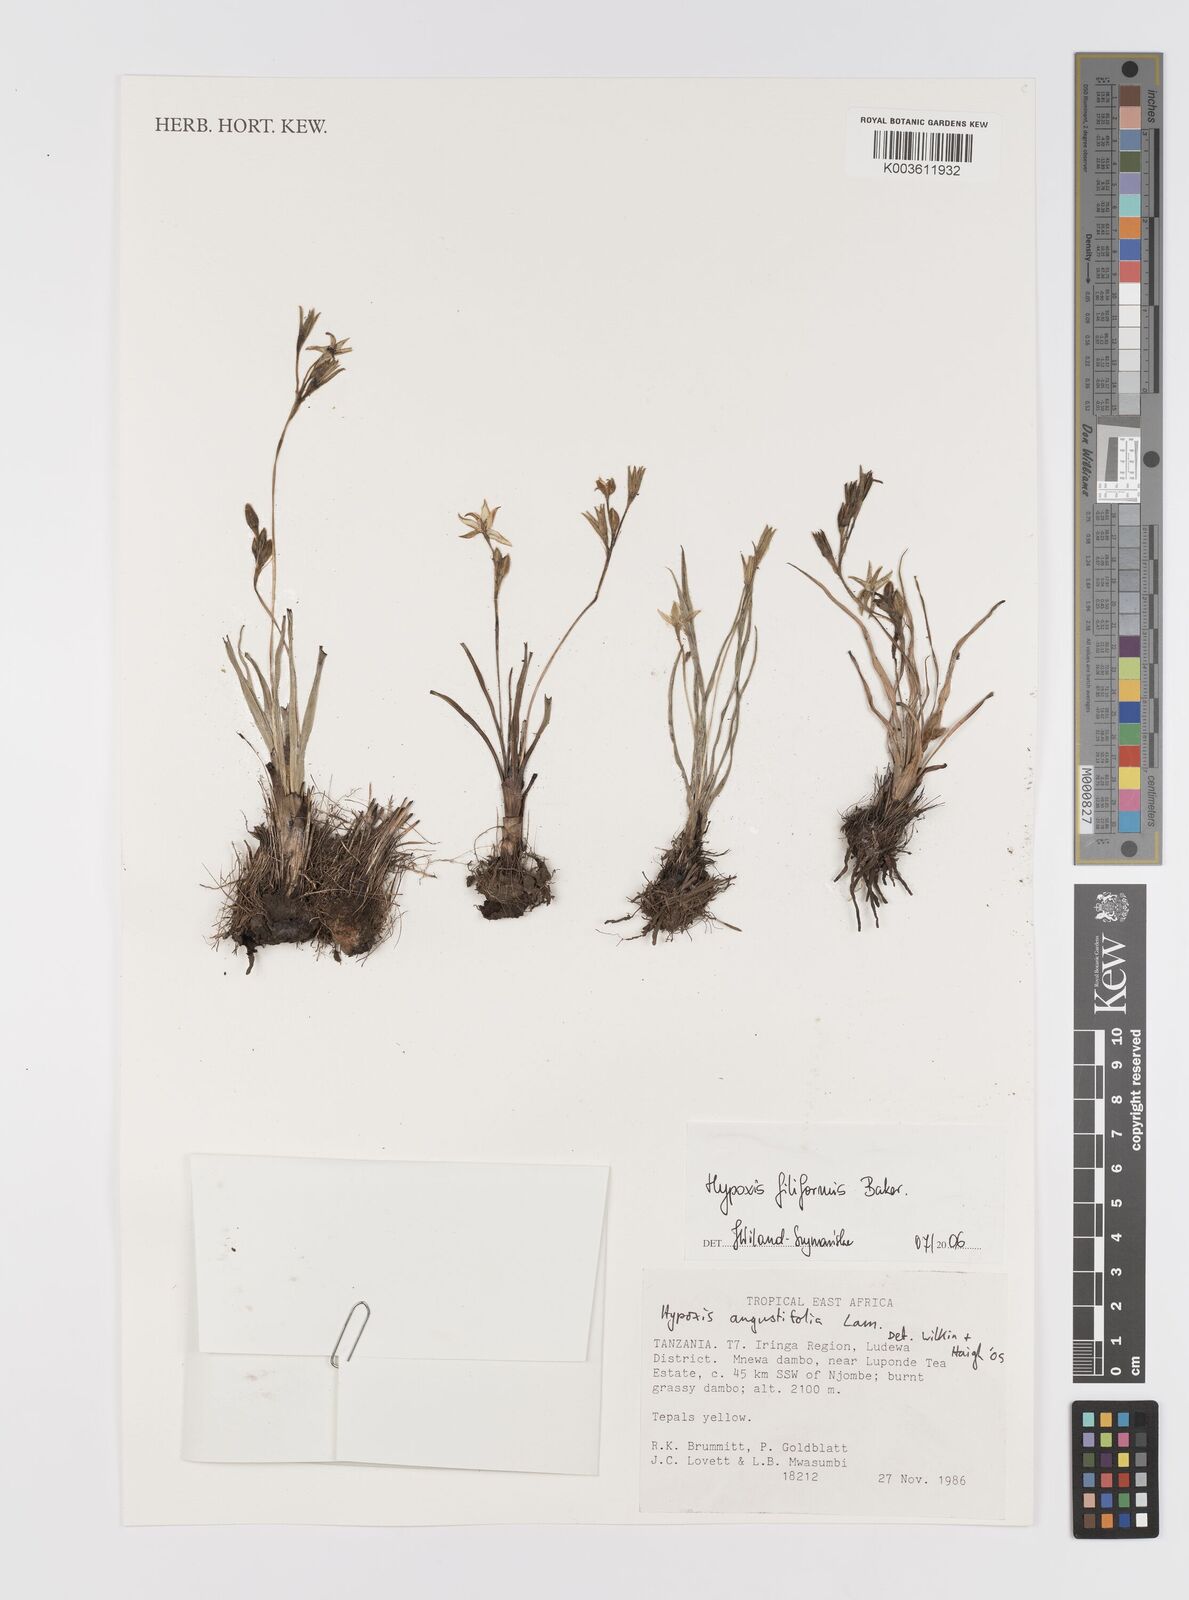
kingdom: Plantae
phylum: Tracheophyta
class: Liliopsida
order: Asparagales
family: Hypoxidaceae
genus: Hypoxis
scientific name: Hypoxis filiformis
